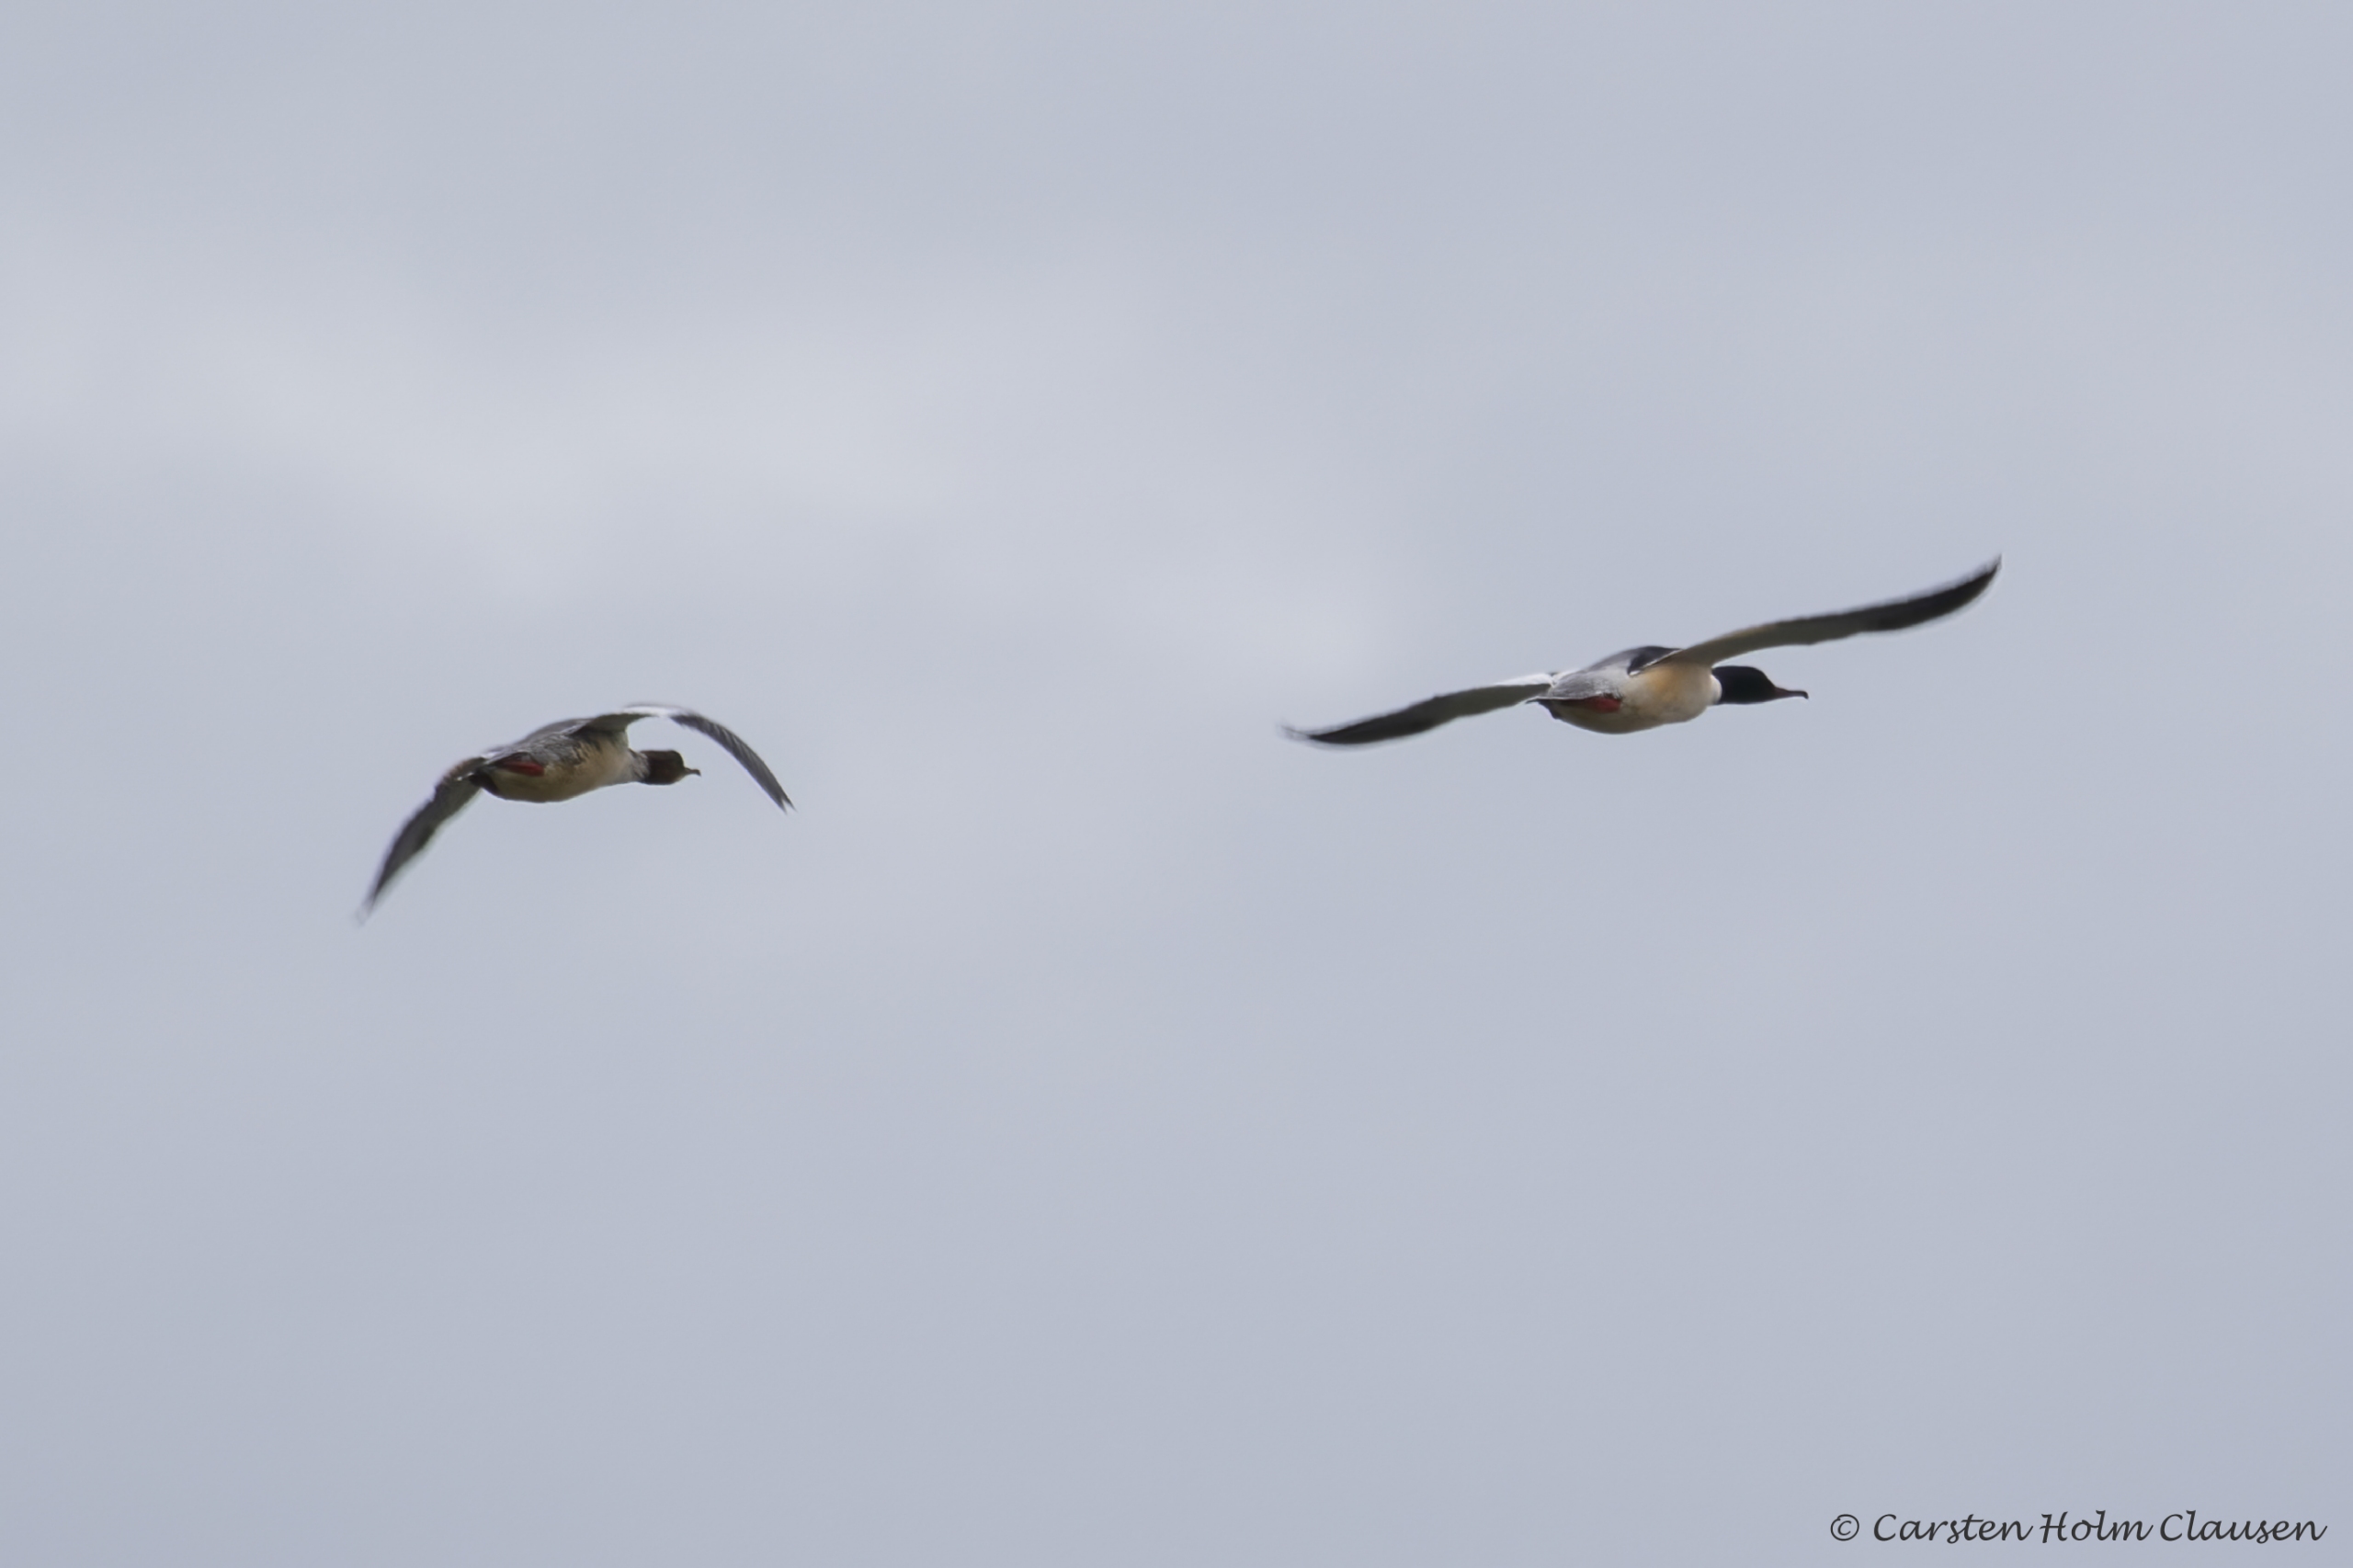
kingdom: Animalia
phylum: Chordata
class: Aves
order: Anseriformes
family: Anatidae
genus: Mergus
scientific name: Mergus merganser
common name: Stor skallesluger
